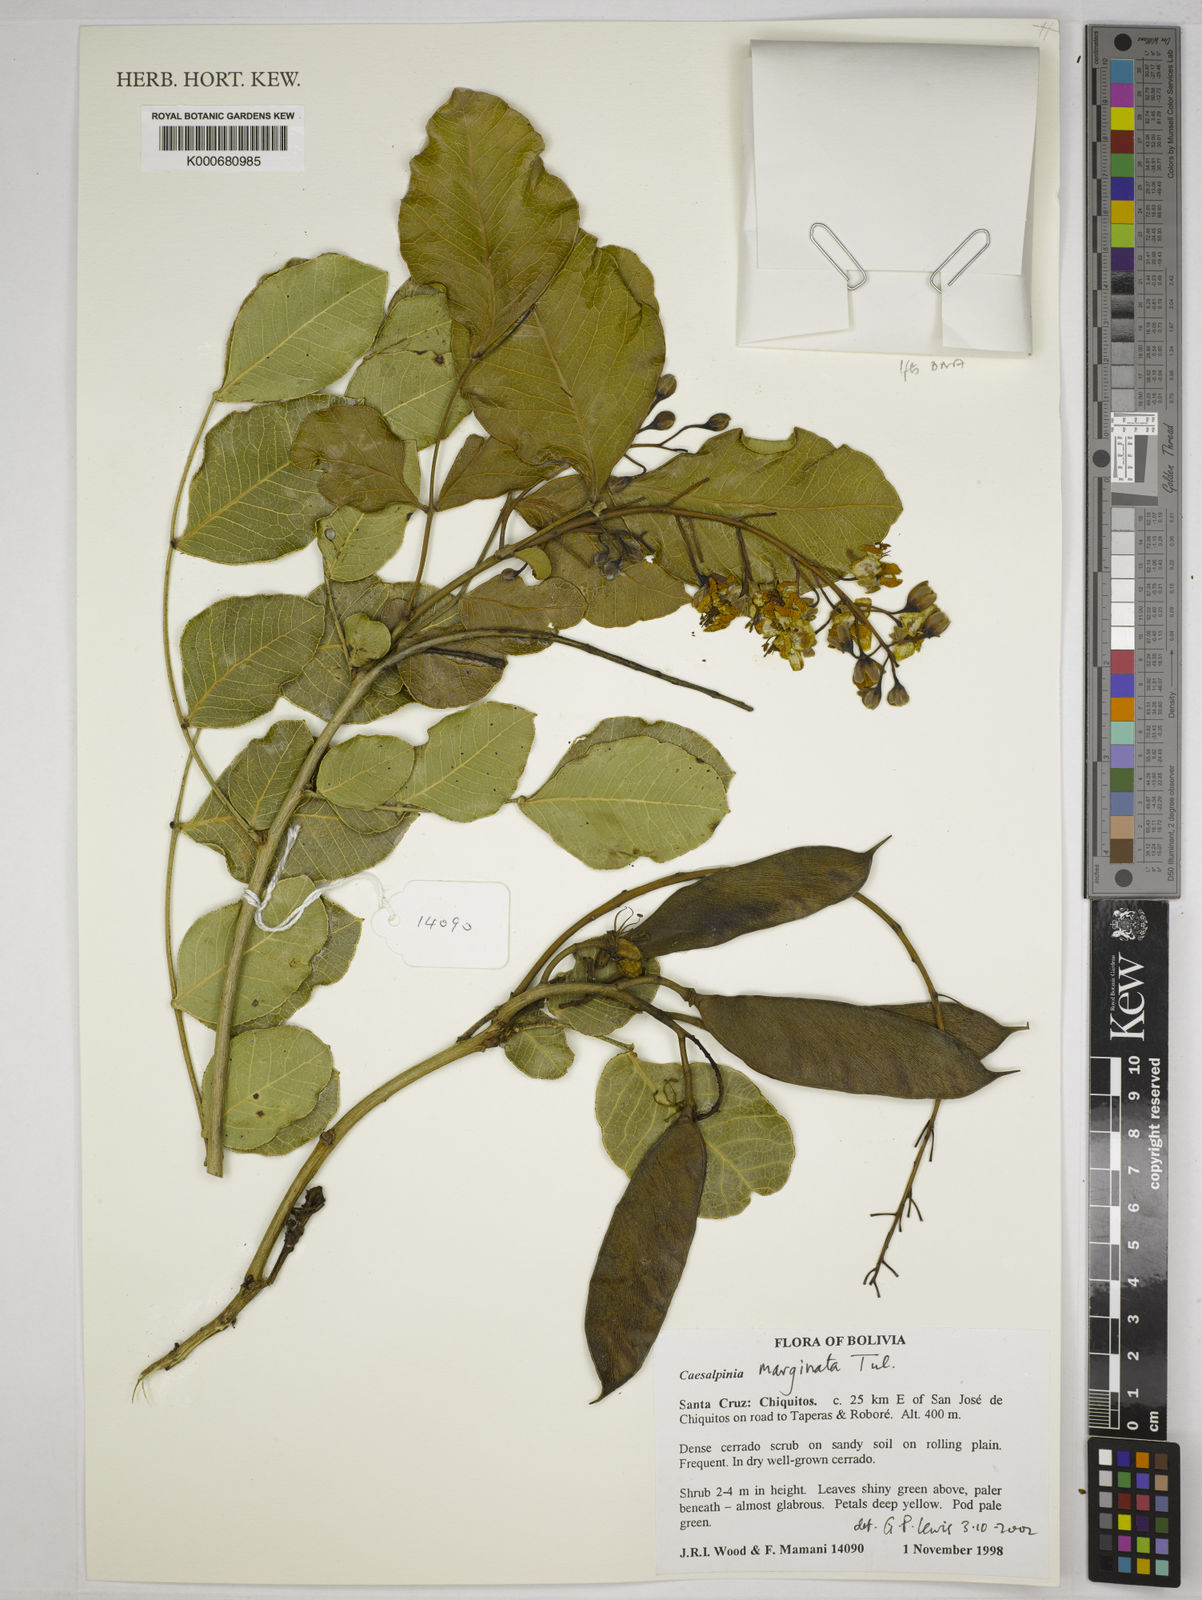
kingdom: Plantae
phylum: Tracheophyta
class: Magnoliopsida
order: Fabales
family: Fabaceae
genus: Cenostigma
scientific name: Cenostigma marginatum
